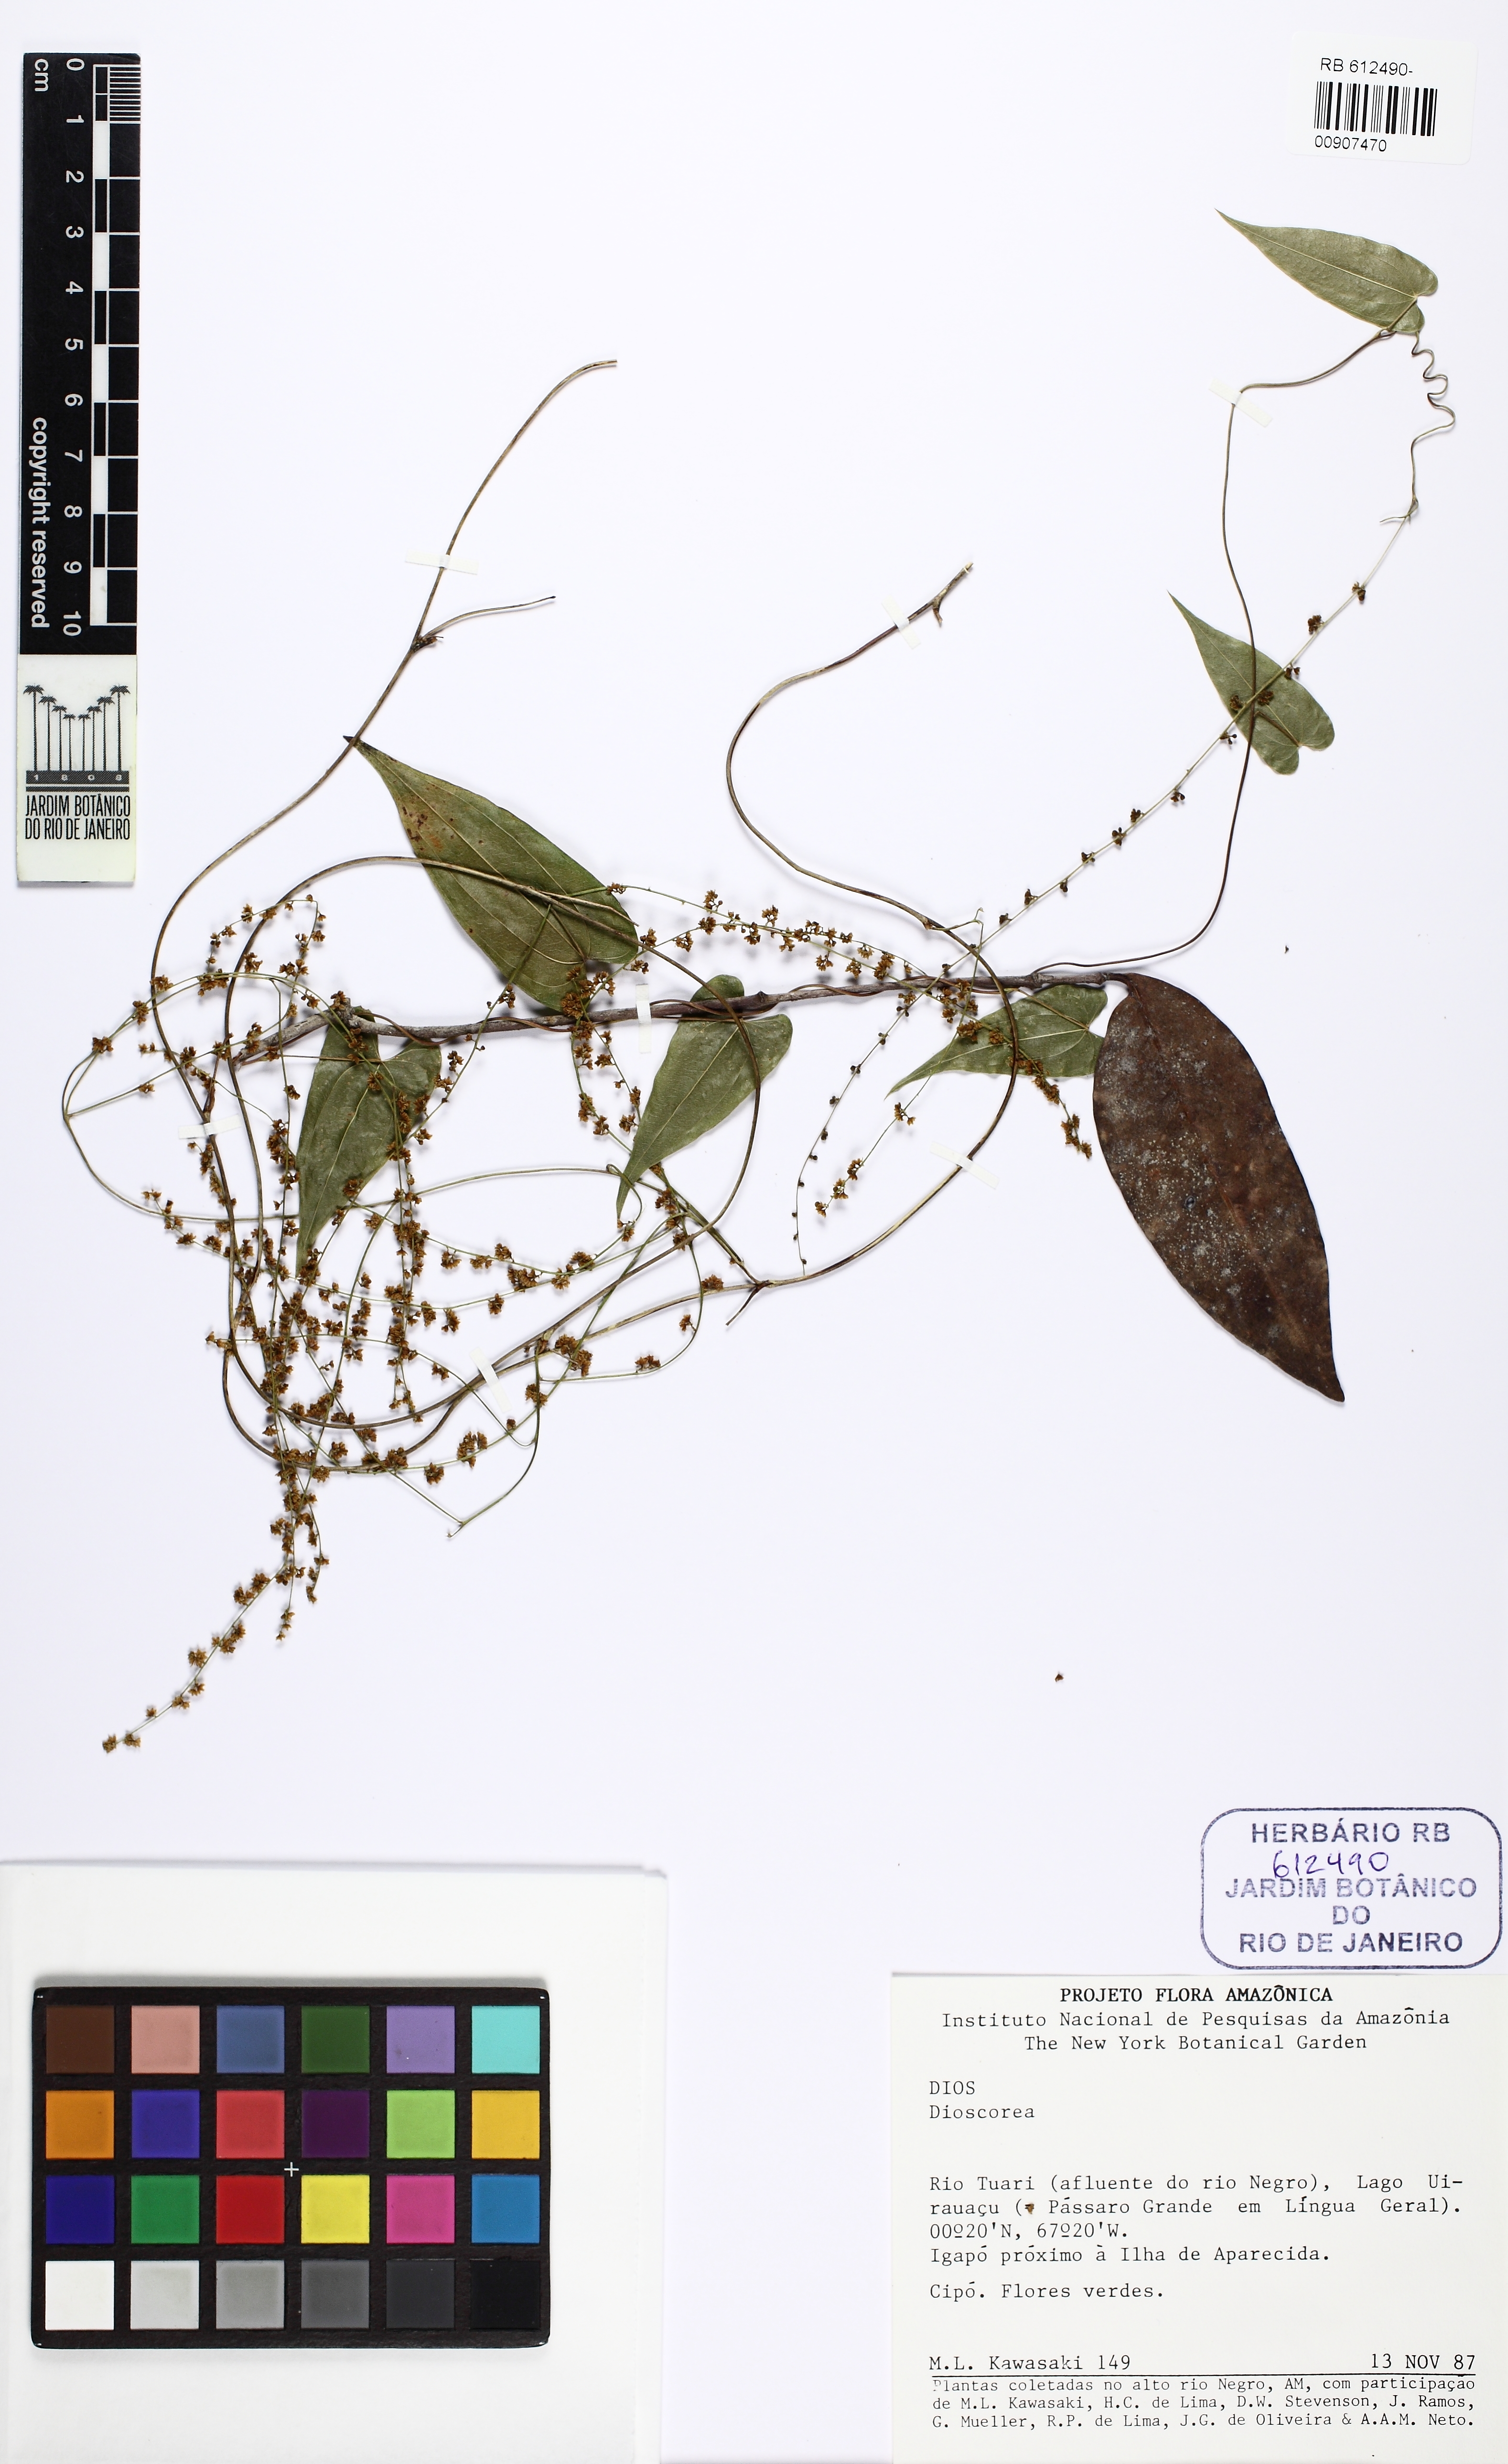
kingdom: Plantae
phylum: Tracheophyta
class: Liliopsida
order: Dioscoreales
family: Dioscoreaceae
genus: Dioscorea
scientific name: Dioscorea
